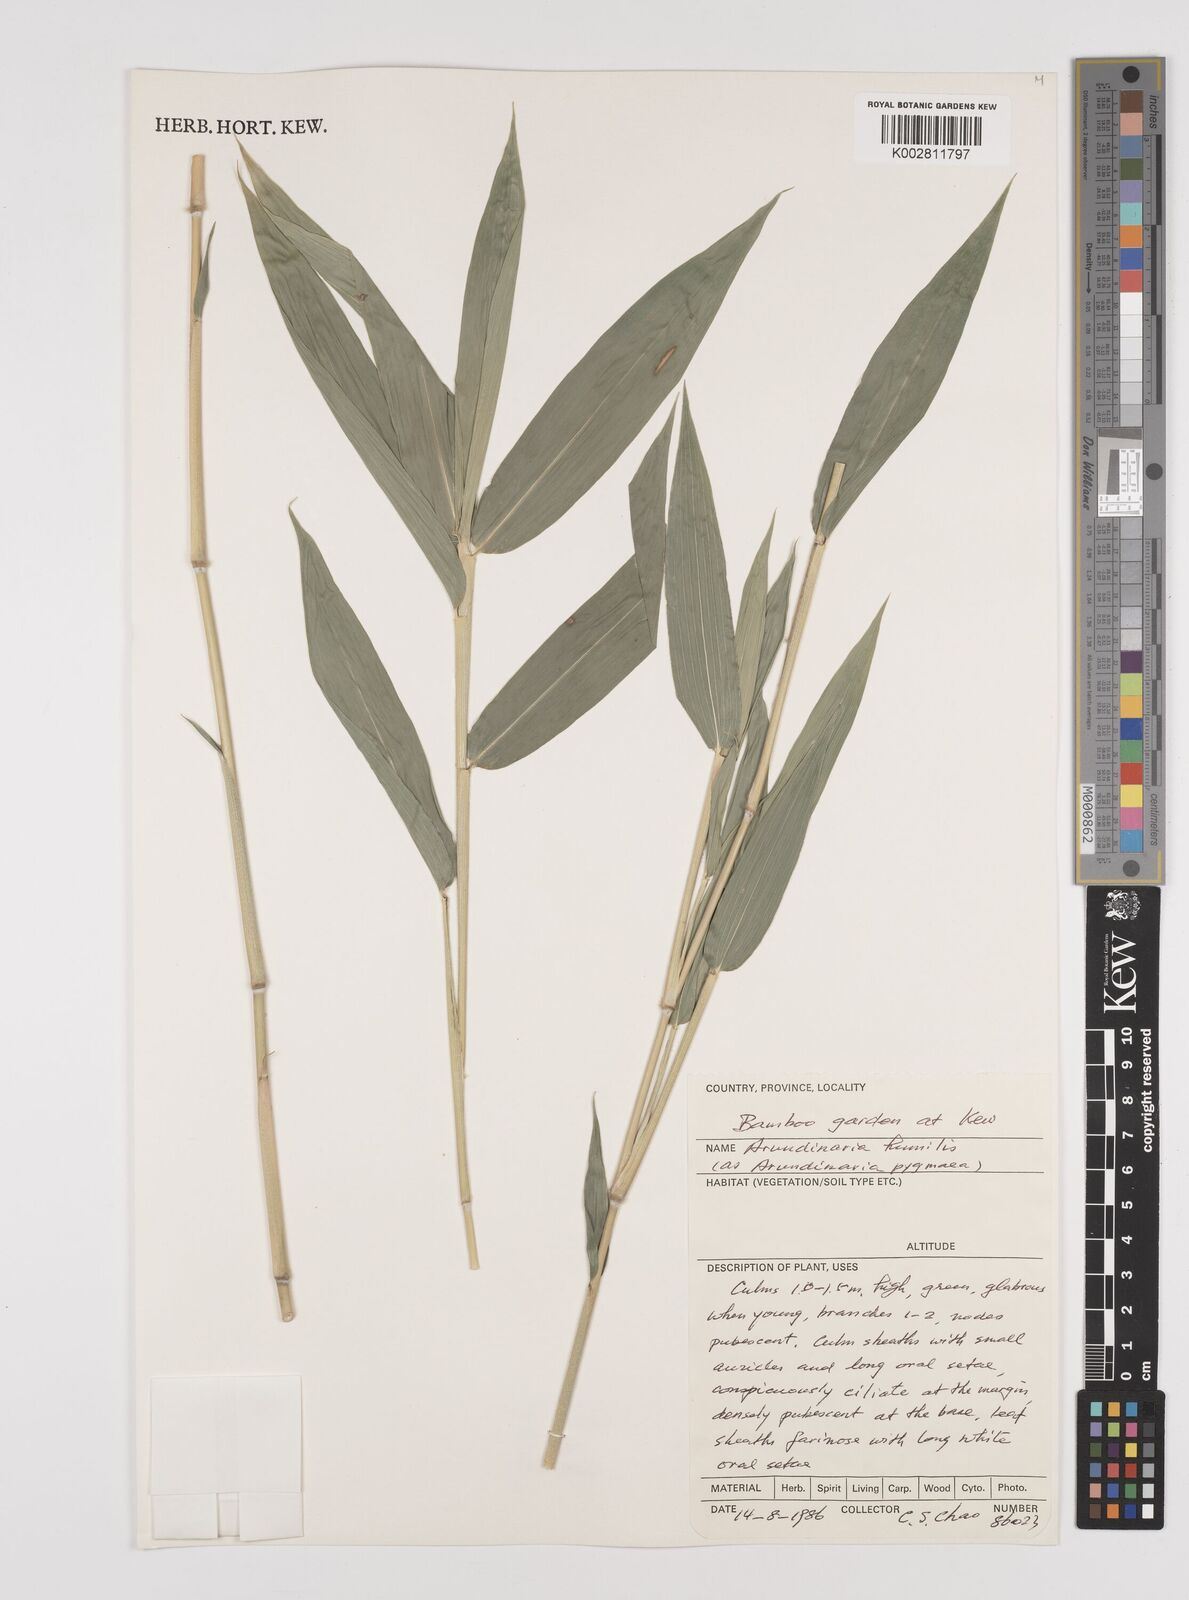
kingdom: Plantae
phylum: Tracheophyta
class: Liliopsida
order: Poales
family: Poaceae
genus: Pseudosasa
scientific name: Pseudosasa humilis
